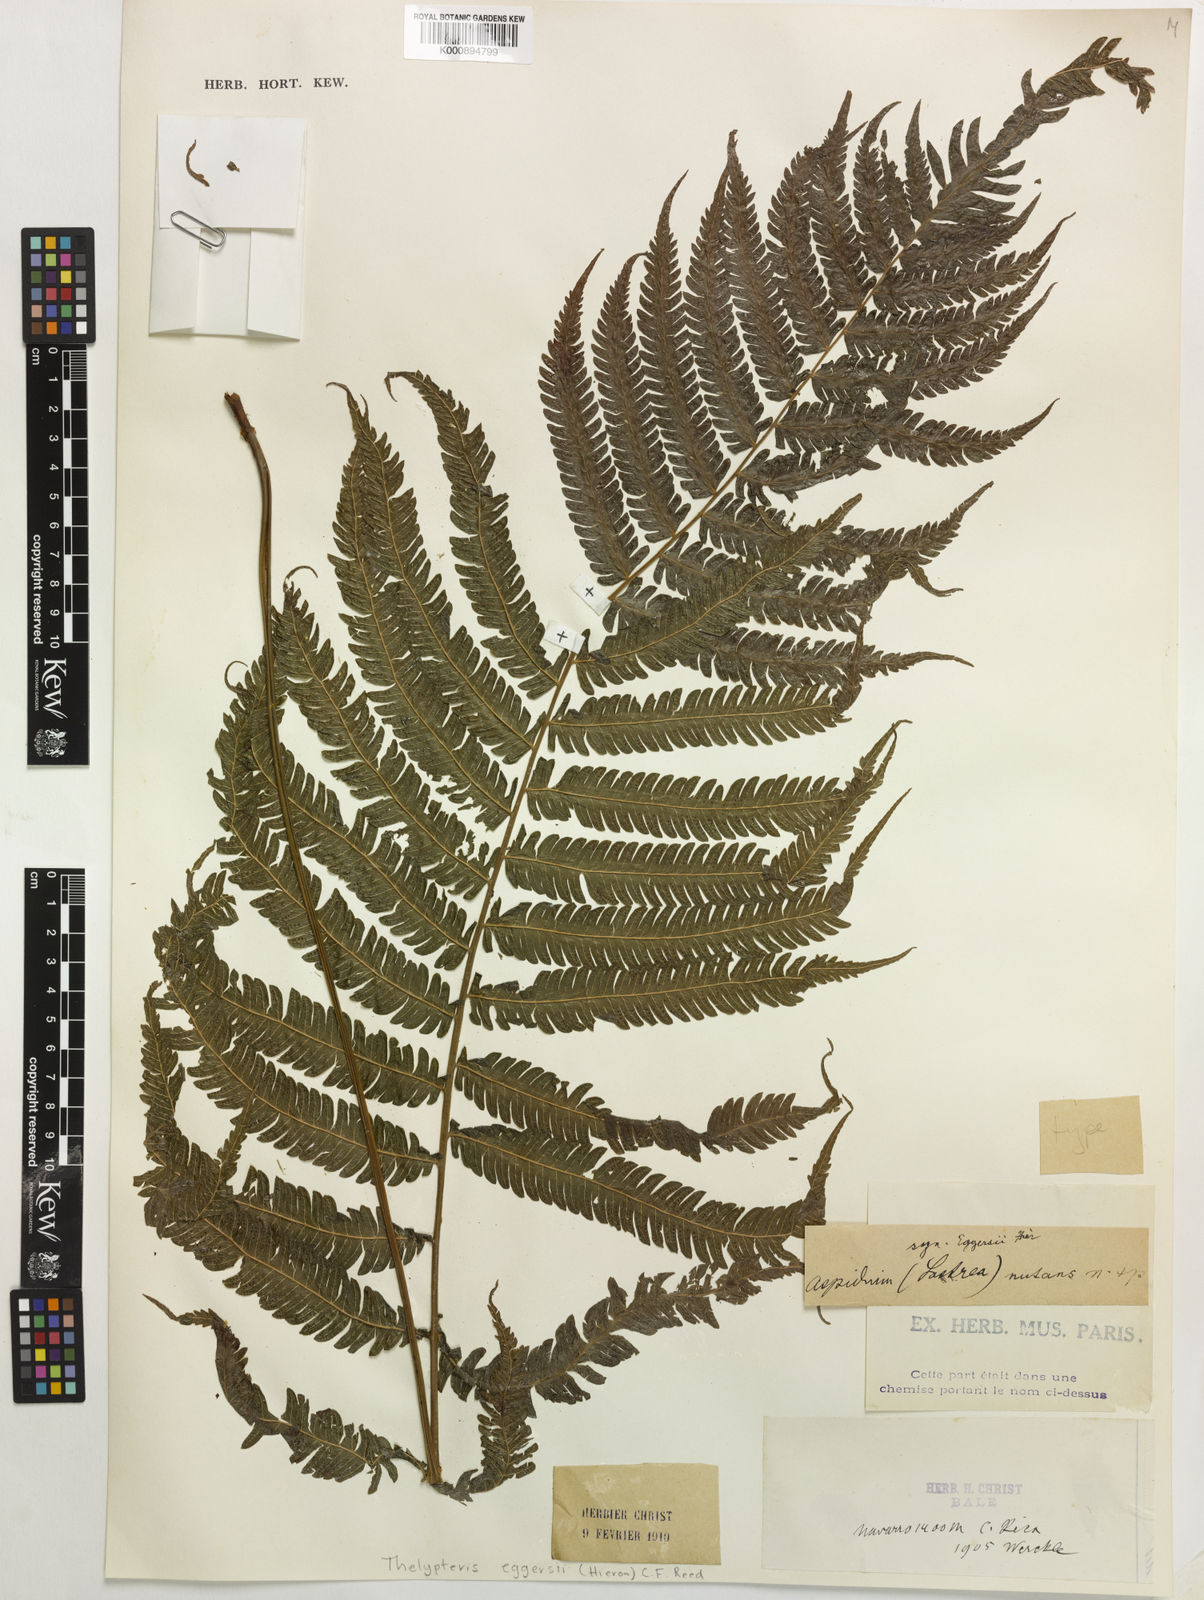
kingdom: Plantae
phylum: Tracheophyta
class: Polypodiopsida
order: Polypodiales
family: Thelypteridaceae
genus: Goniopteris
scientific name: Goniopteris eggersii
